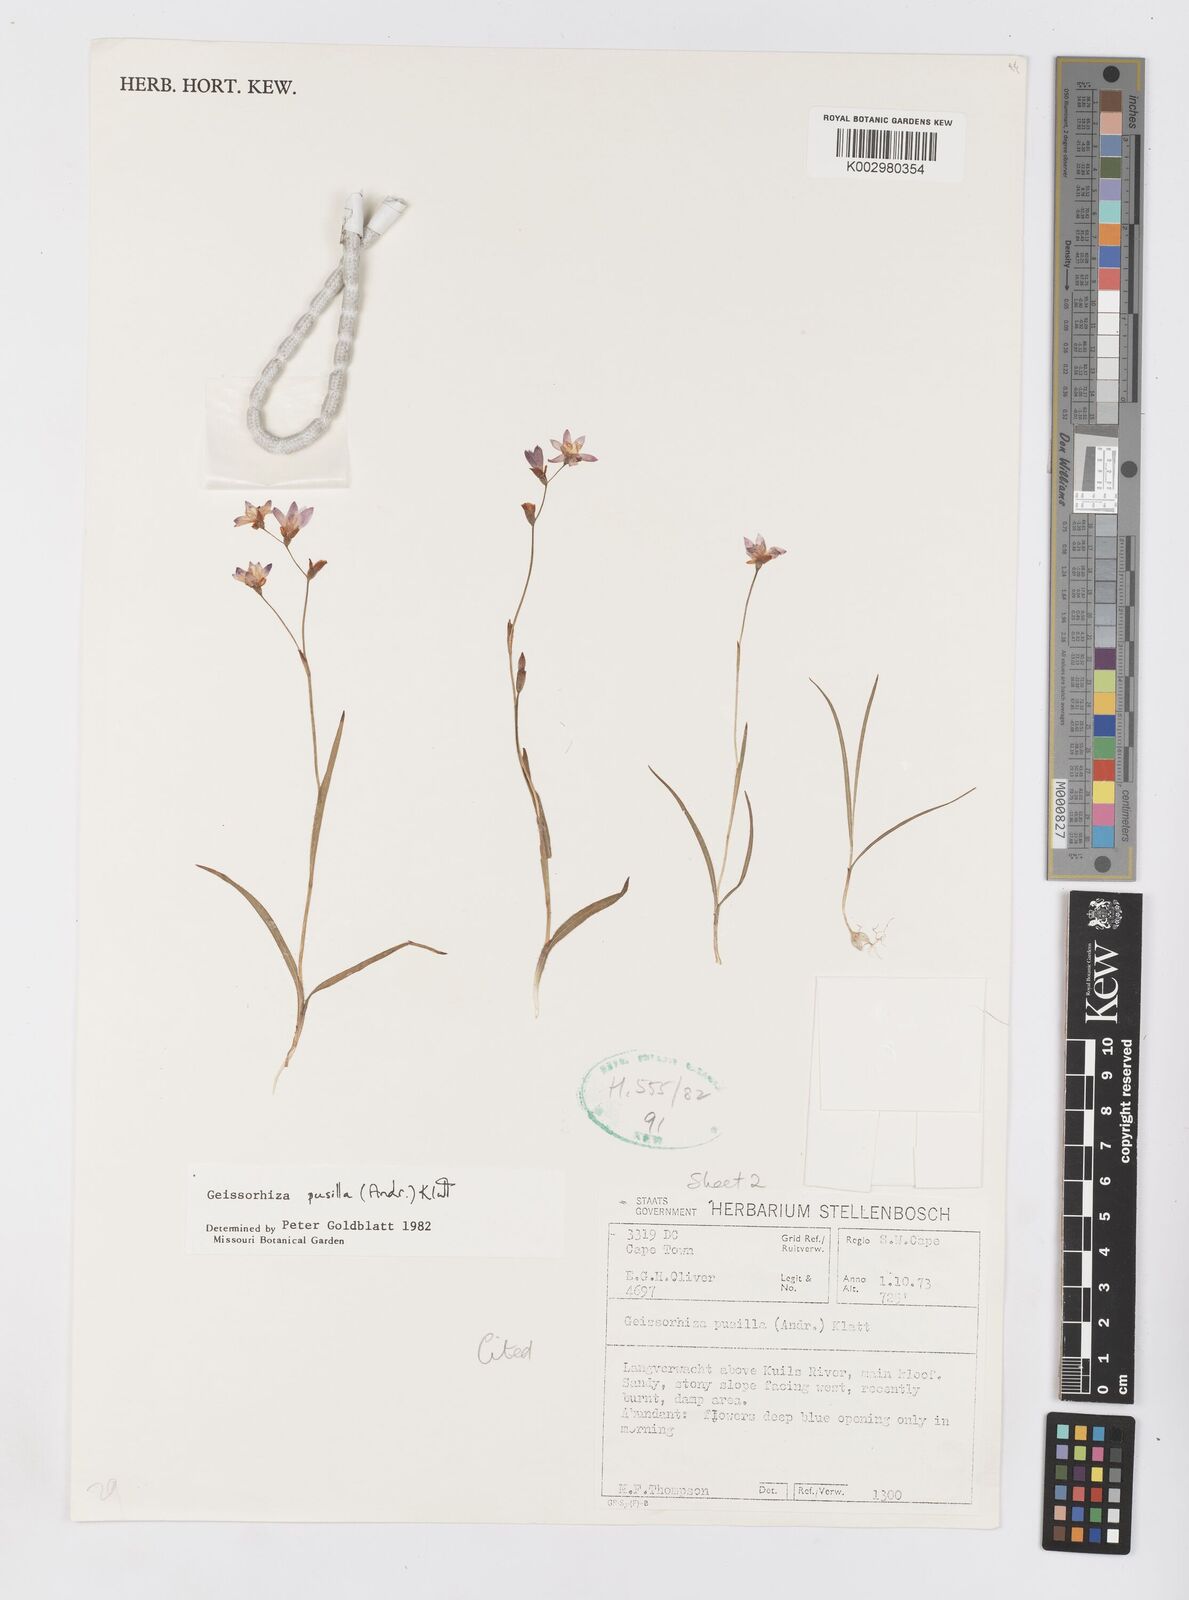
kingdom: Plantae
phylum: Tracheophyta
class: Liliopsida
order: Asparagales
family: Iridaceae
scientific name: Iridaceae
